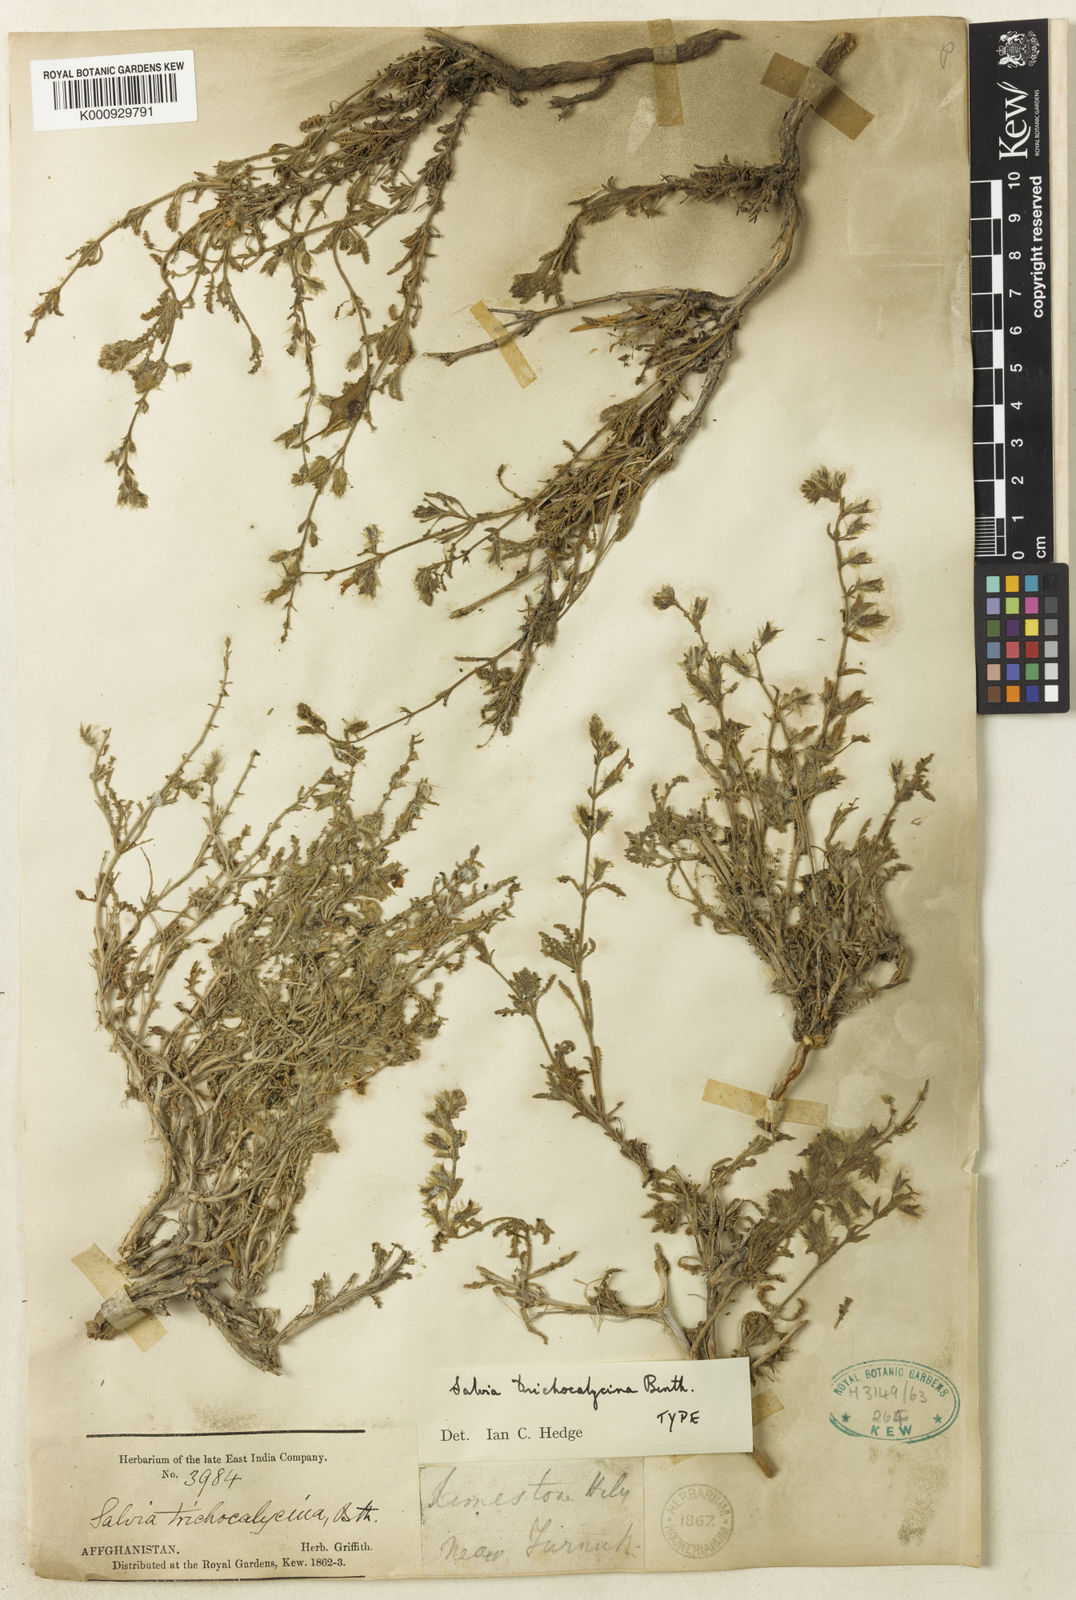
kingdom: Plantae
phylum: Tracheophyta
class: Magnoliopsida
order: Lamiales
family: Lamiaceae
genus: Salvia
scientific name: Salvia trichocalycina
